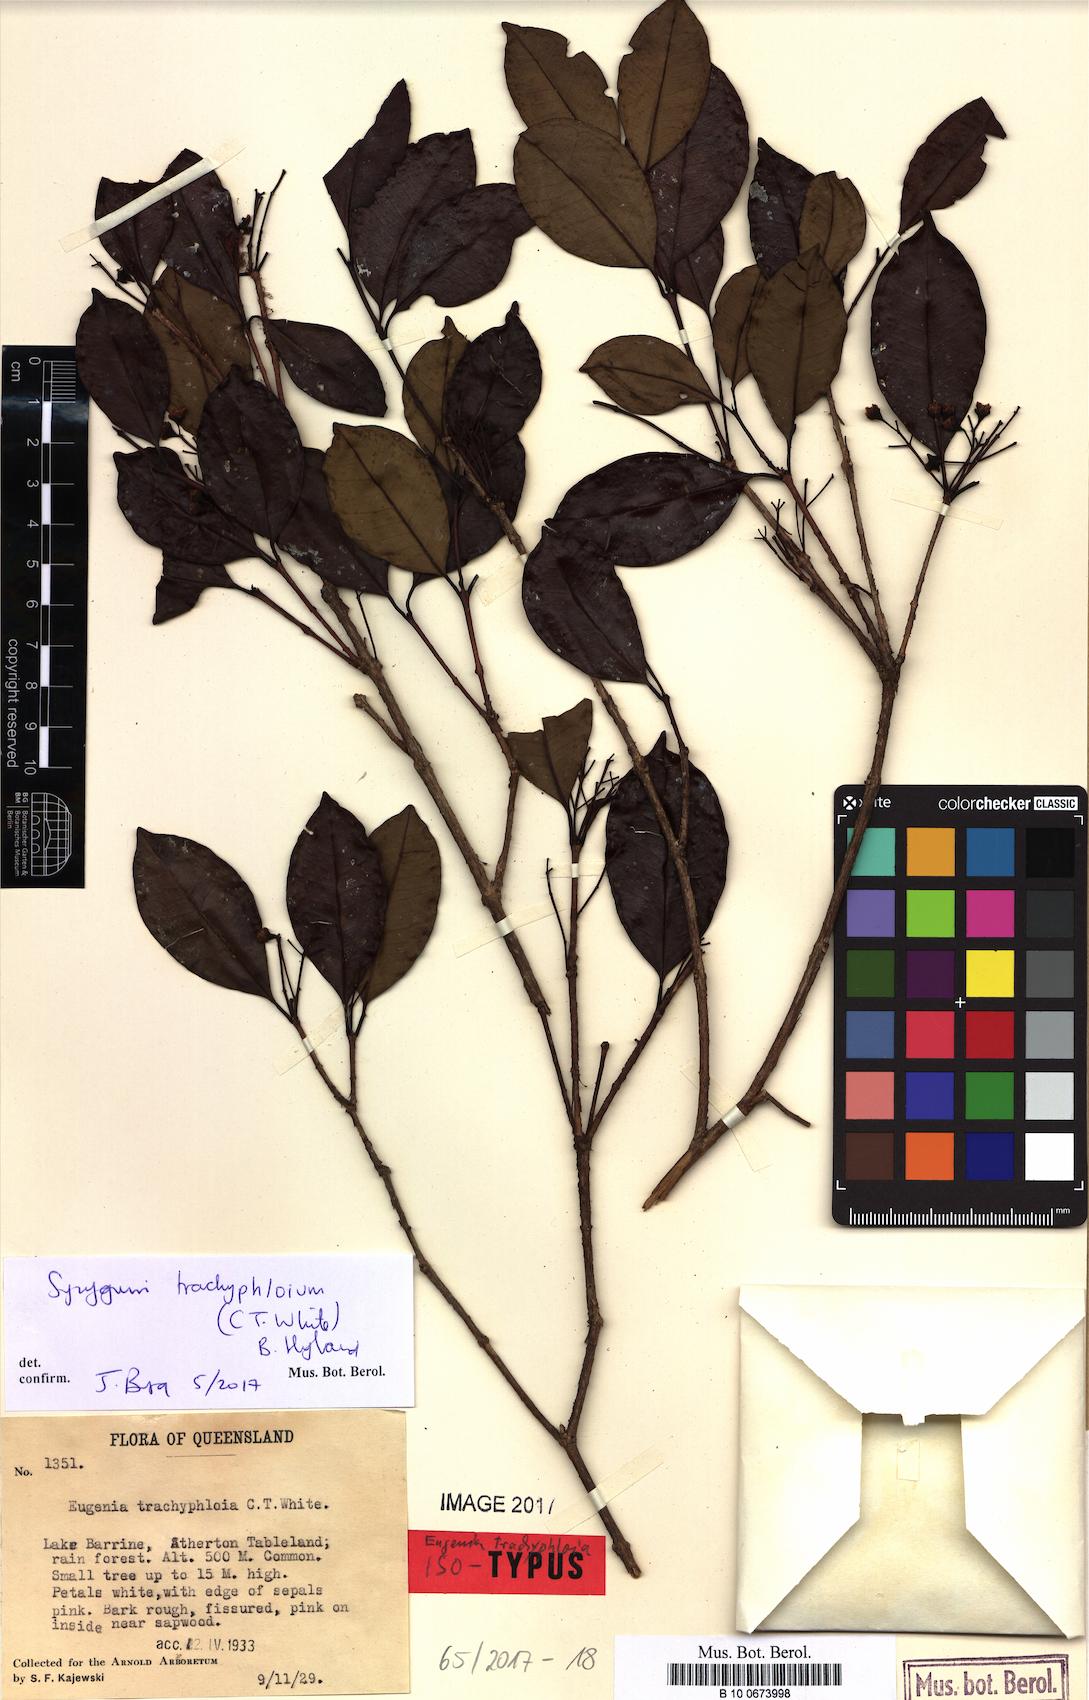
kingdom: Plantae
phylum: Tracheophyta
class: Magnoliopsida
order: Myrtales
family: Myrtaceae
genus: Syzygium
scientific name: Syzygium trachyphloium
